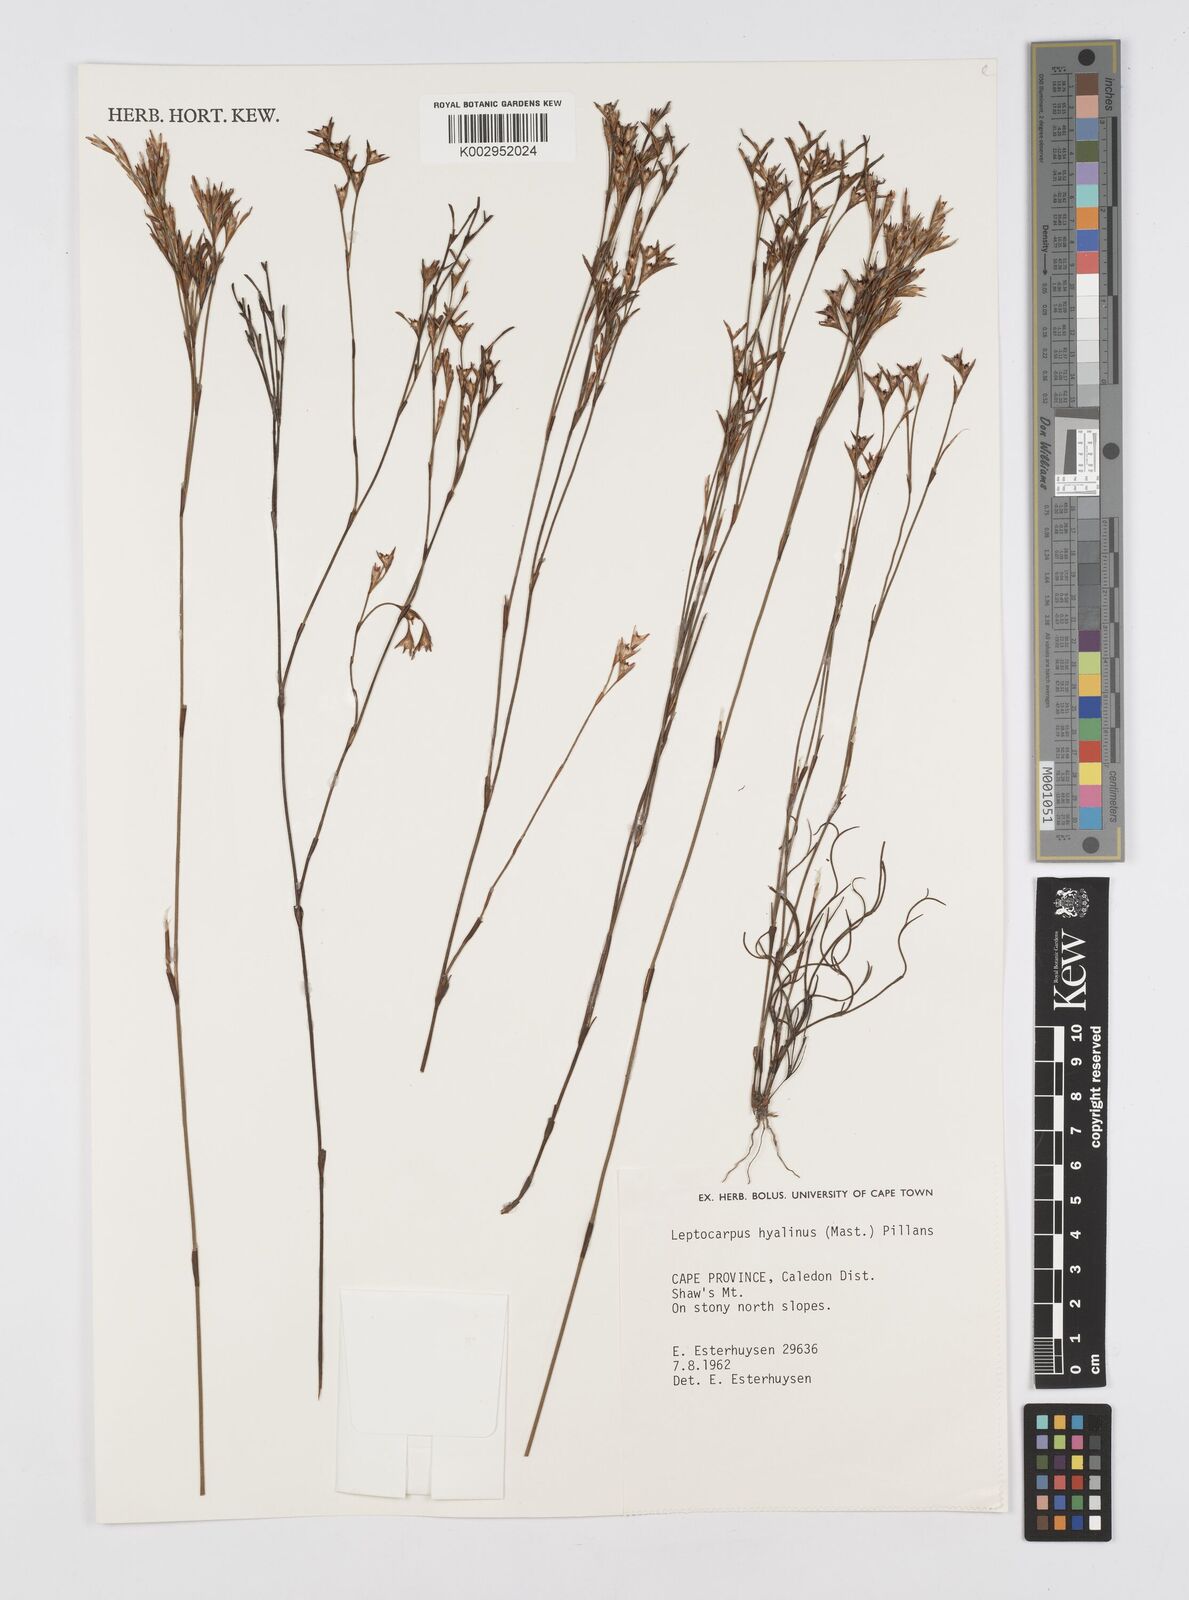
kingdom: Plantae
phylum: Tracheophyta
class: Liliopsida
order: Poales
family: Restionaceae
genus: Restio
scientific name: Restio hyalinus
